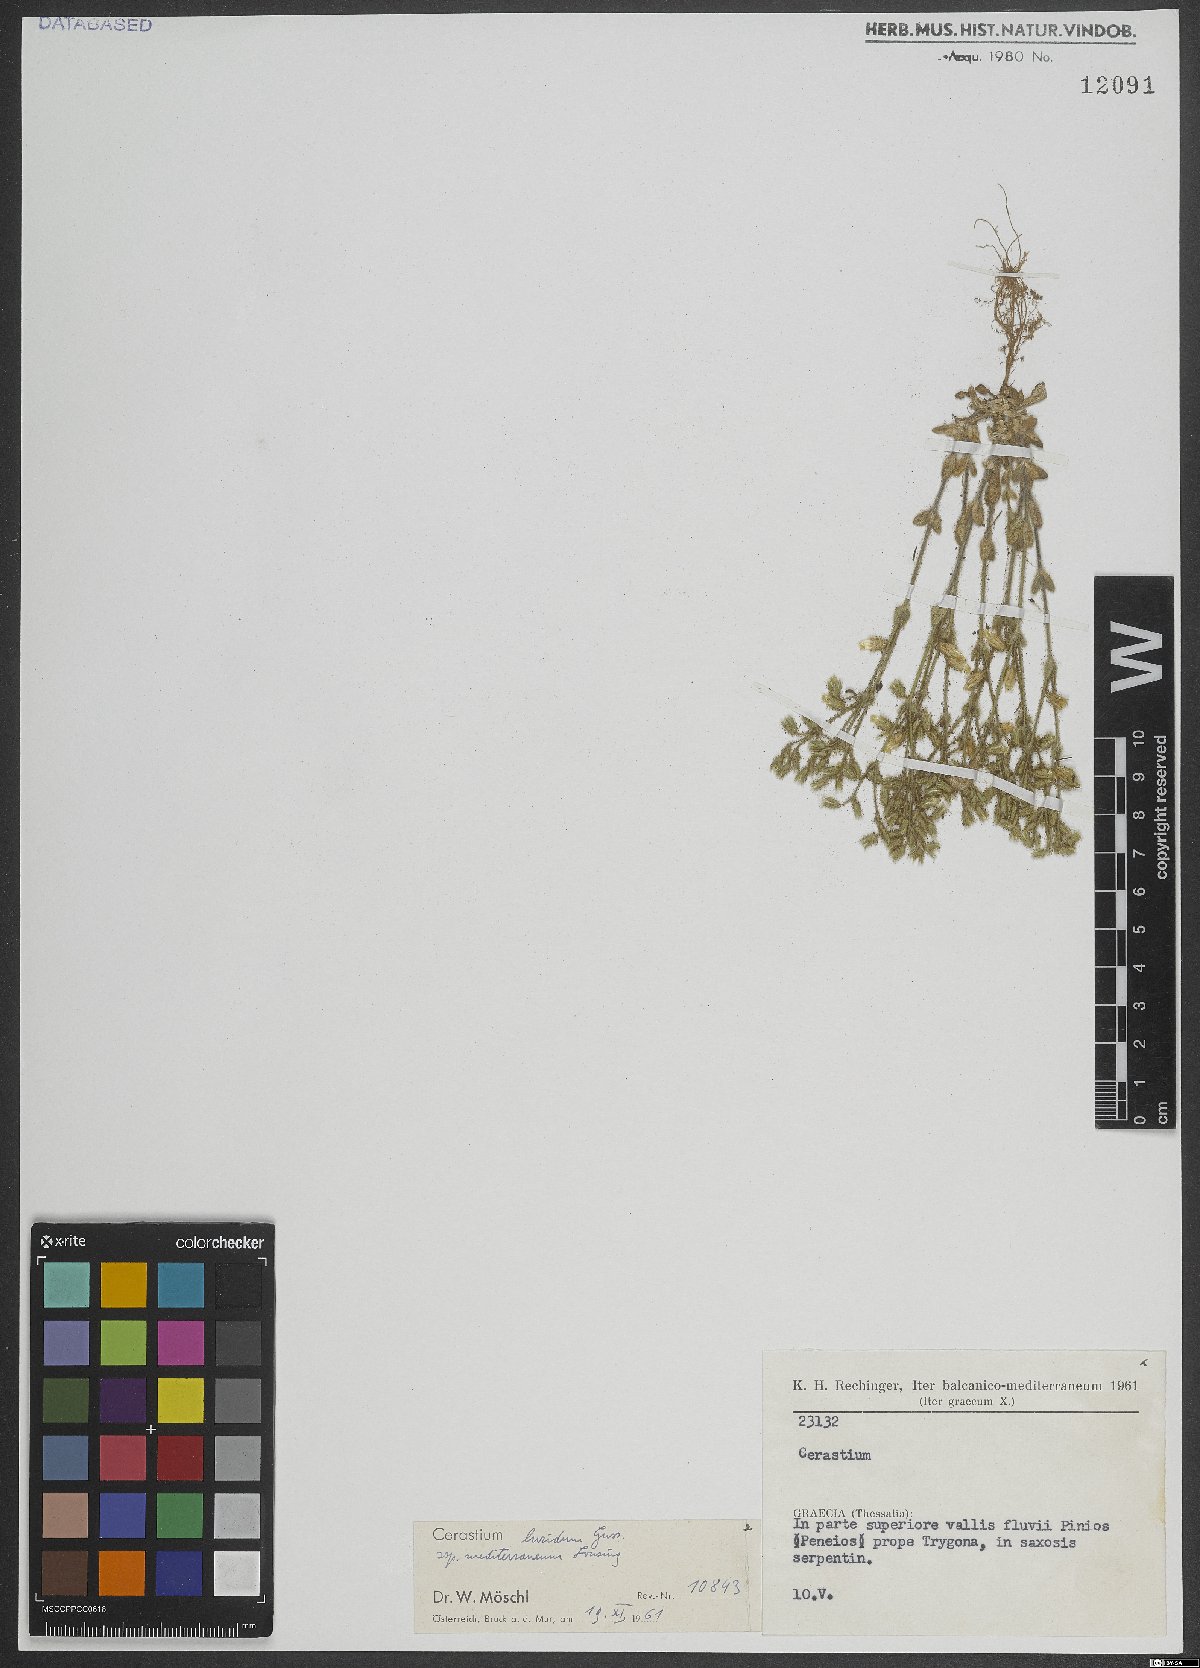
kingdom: Plantae
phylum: Tracheophyta
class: Magnoliopsida
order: Caryophyllales
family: Caryophyllaceae
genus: Cerastium
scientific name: Cerastium brachypetalum
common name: Grey mouse-ear
